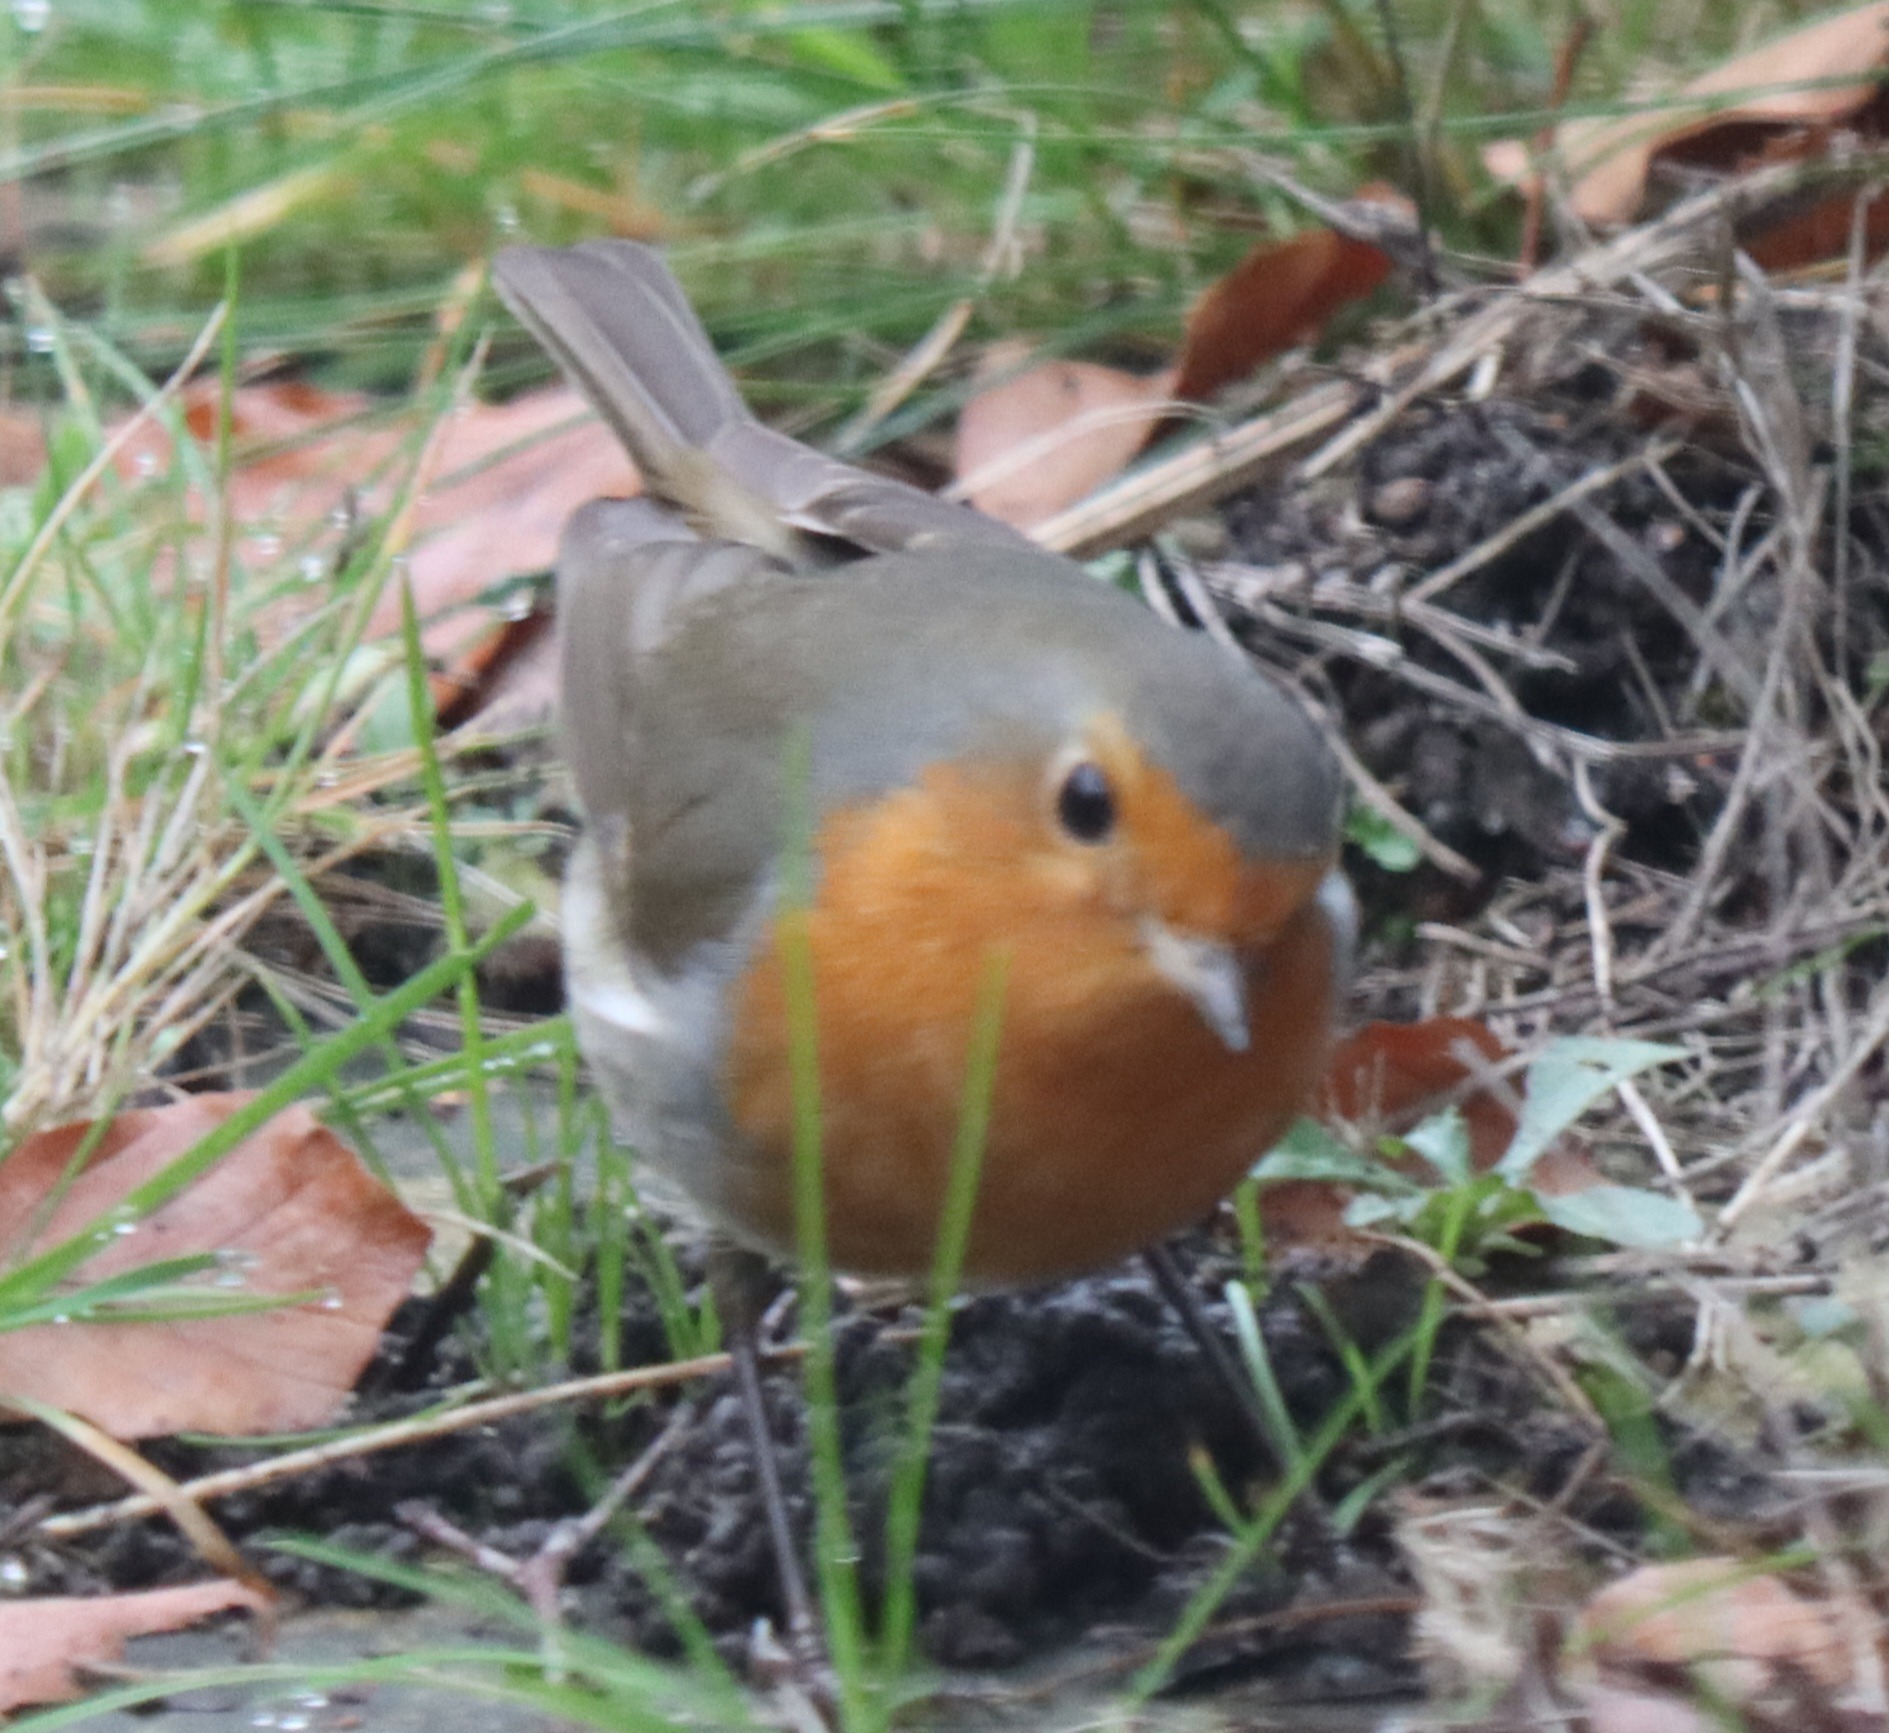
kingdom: Animalia
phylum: Chordata
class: Aves
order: Passeriformes
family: Muscicapidae
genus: Erithacus
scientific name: Erithacus rubecula
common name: Rødhals/rødkælk
